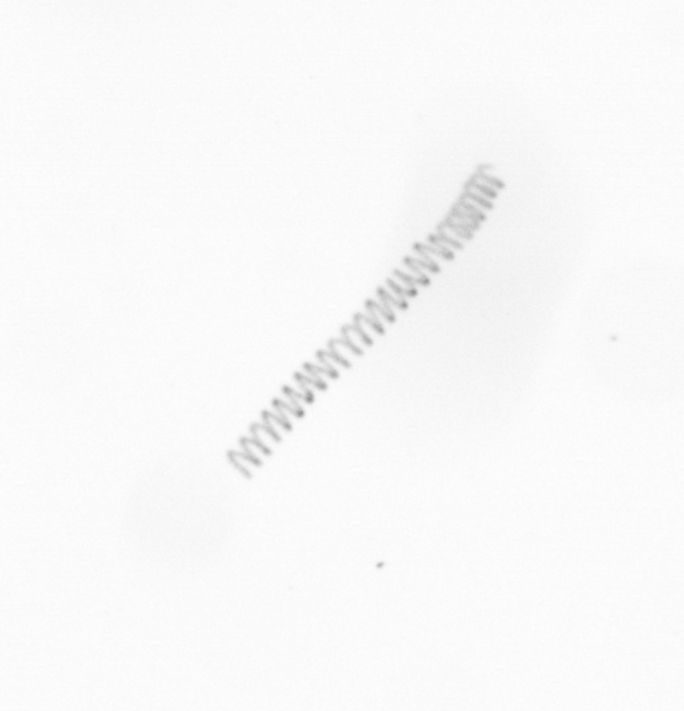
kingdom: Chromista
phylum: Ochrophyta
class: Bacillariophyceae
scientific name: Bacillariophyceae
